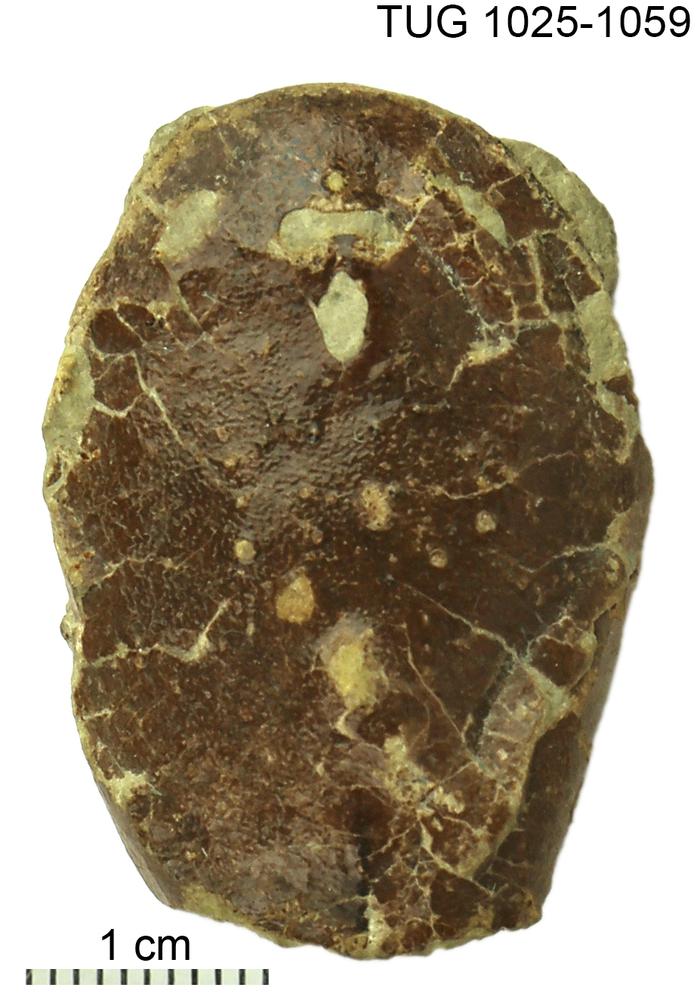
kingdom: Animalia
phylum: Chordata
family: Tremataspididae
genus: Tremataspis
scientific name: Tremataspis
